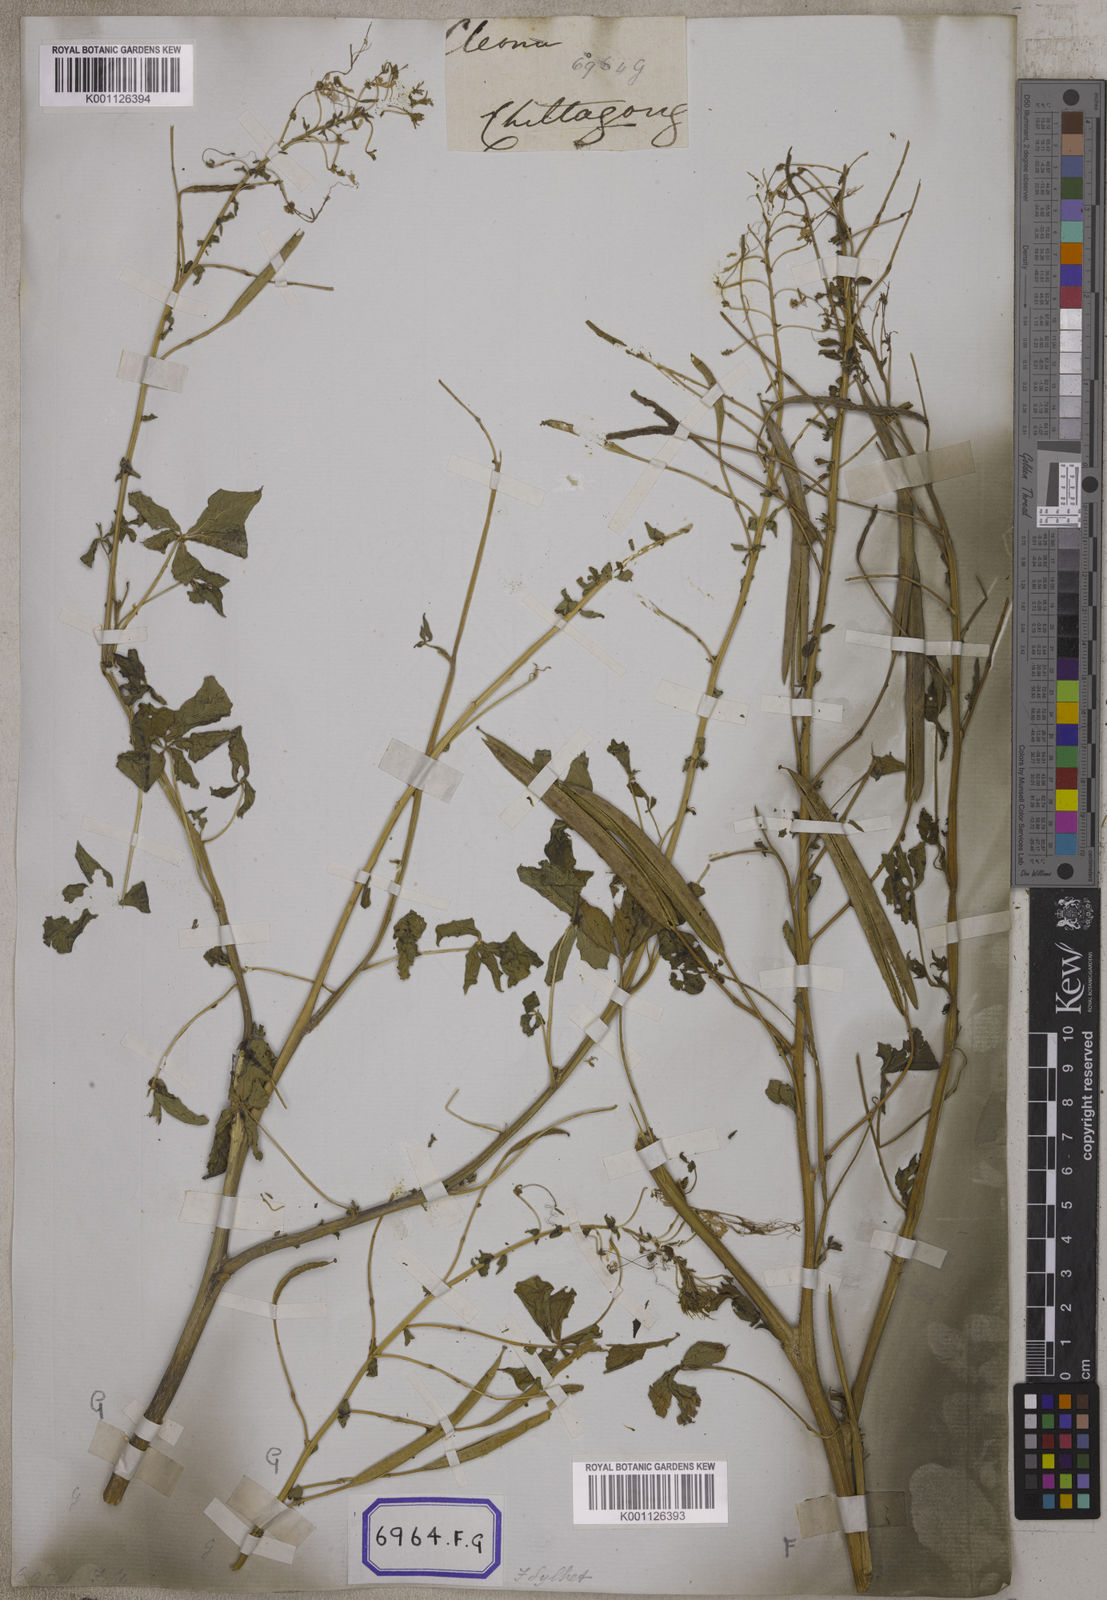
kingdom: Plantae
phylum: Tracheophyta
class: Magnoliopsida
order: Brassicales
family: Cleomaceae
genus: Gynandropsis
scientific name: Gynandropsis gynandra
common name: Spiderwisp
